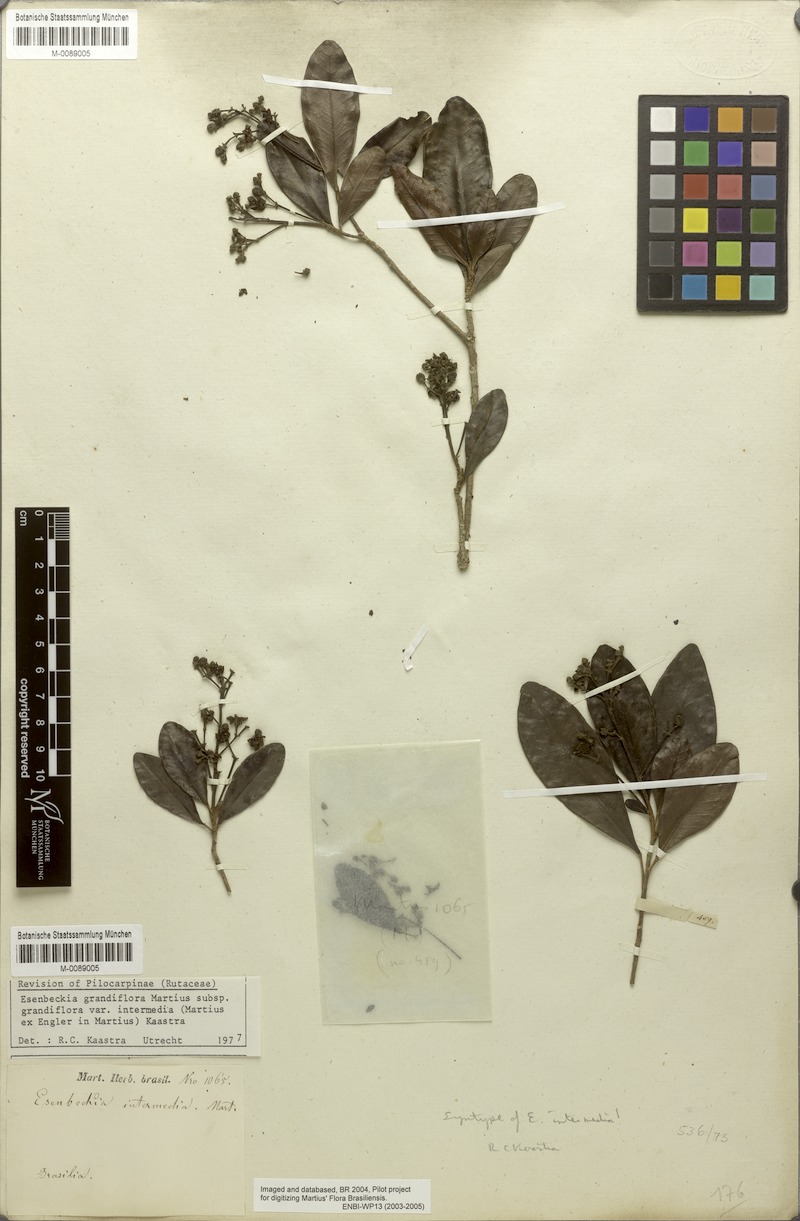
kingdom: Plantae
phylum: Tracheophyta
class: Magnoliopsida
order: Sapindales
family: Rutaceae
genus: Esenbeckia
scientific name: Esenbeckia grandiflora
